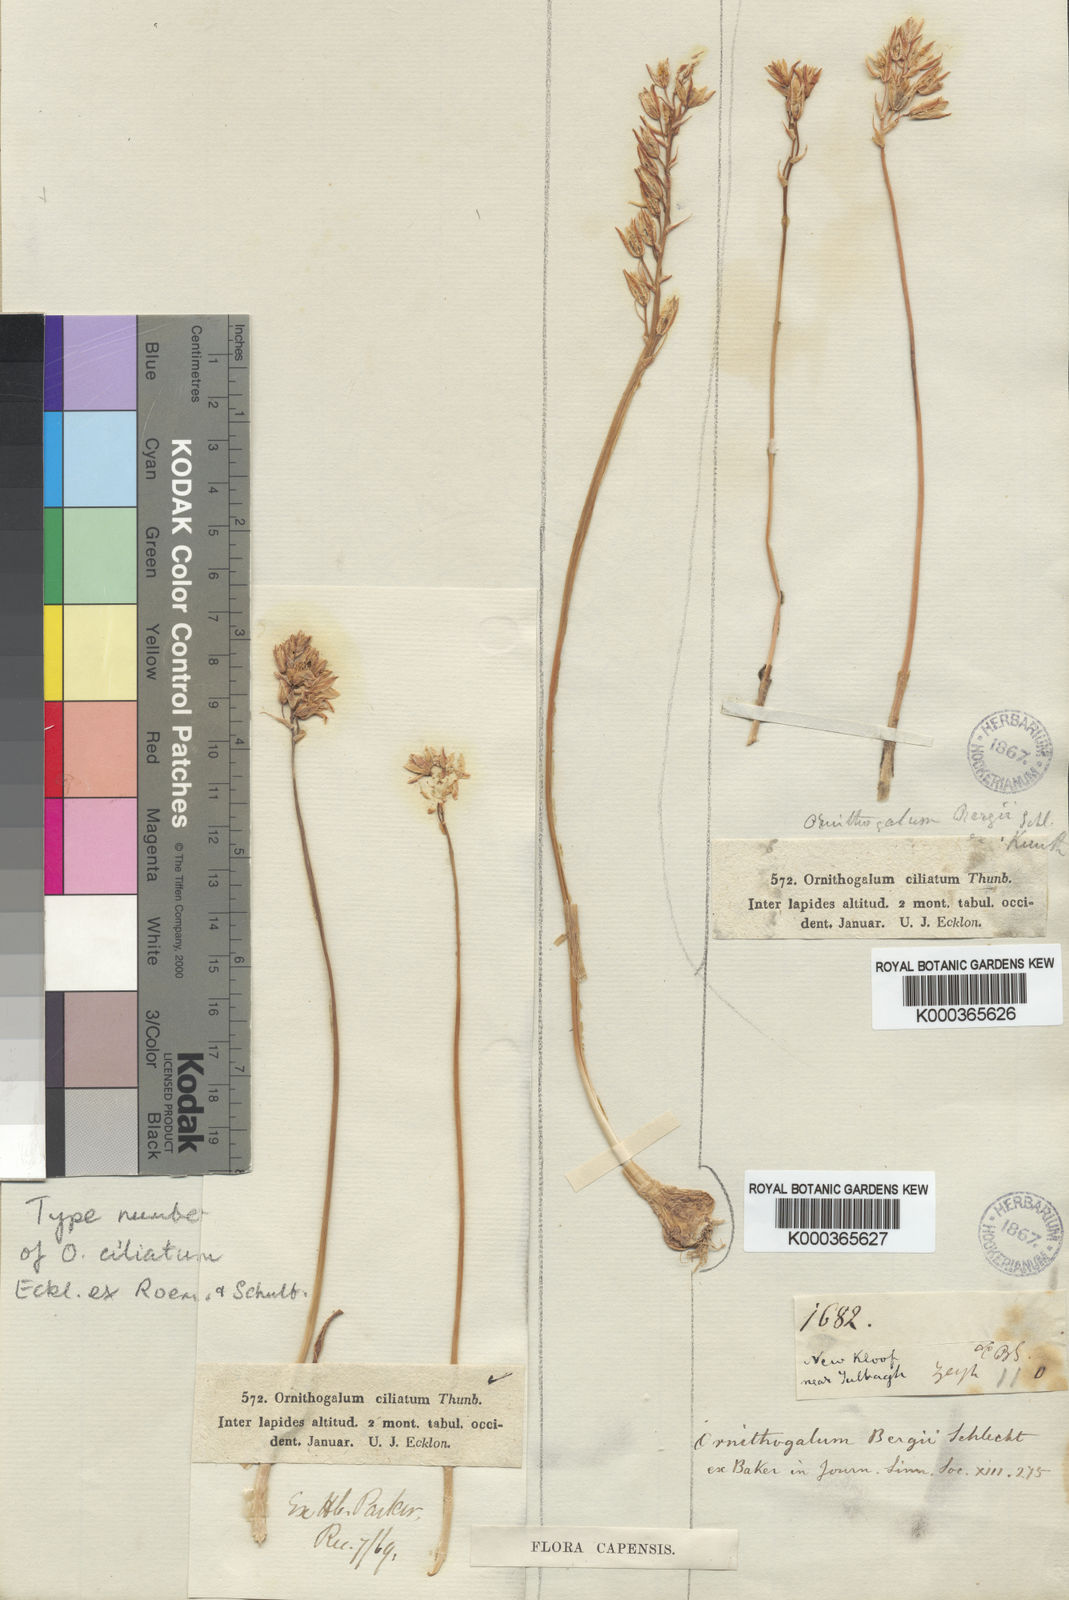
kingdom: Plantae
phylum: Tracheophyta
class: Liliopsida
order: Asparagales
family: Asparagaceae
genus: Ornithogalum
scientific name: Ornithogalum hispidum
